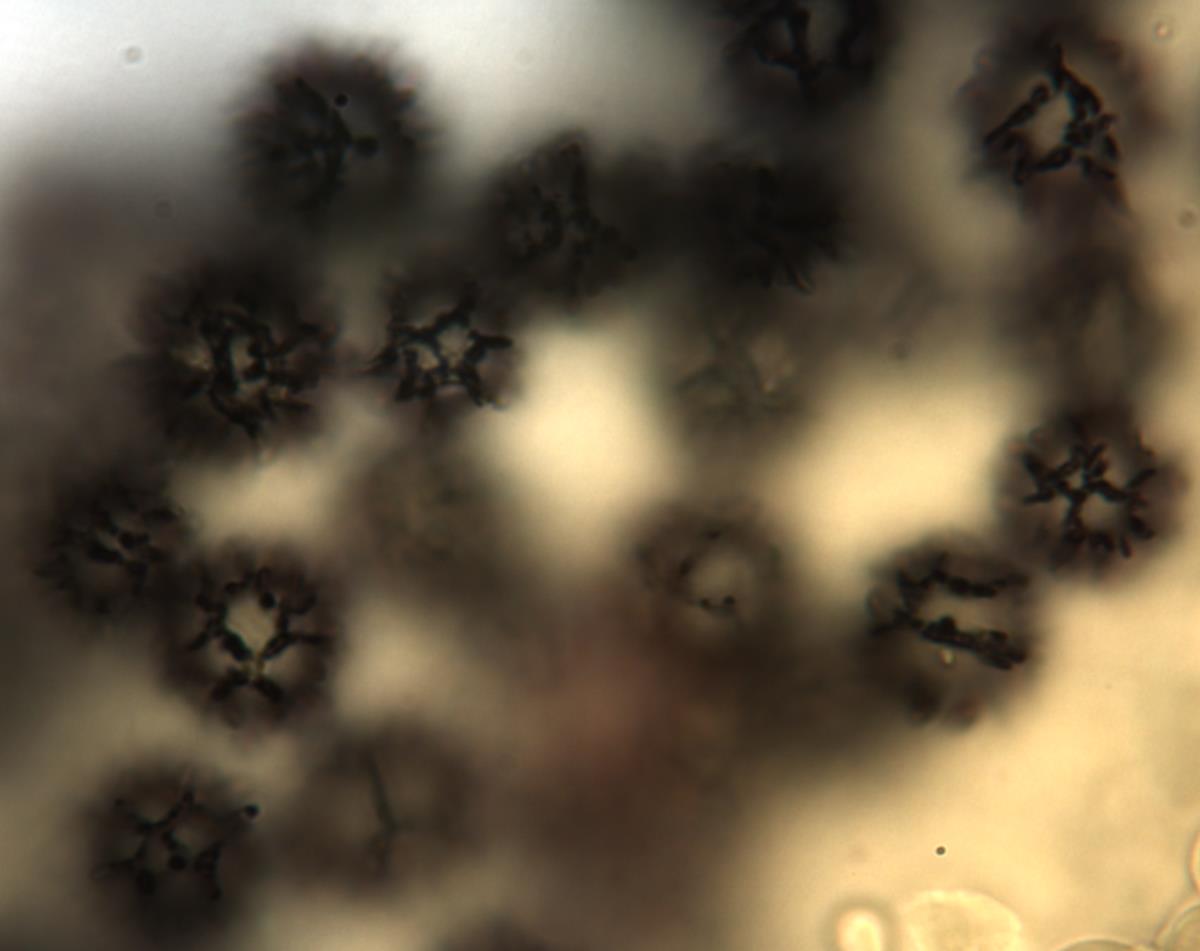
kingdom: Fungi
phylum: Basidiomycota
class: Agaricomycetes
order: Russulales
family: Russulaceae
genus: Russula
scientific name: Russula osphranticarpa
